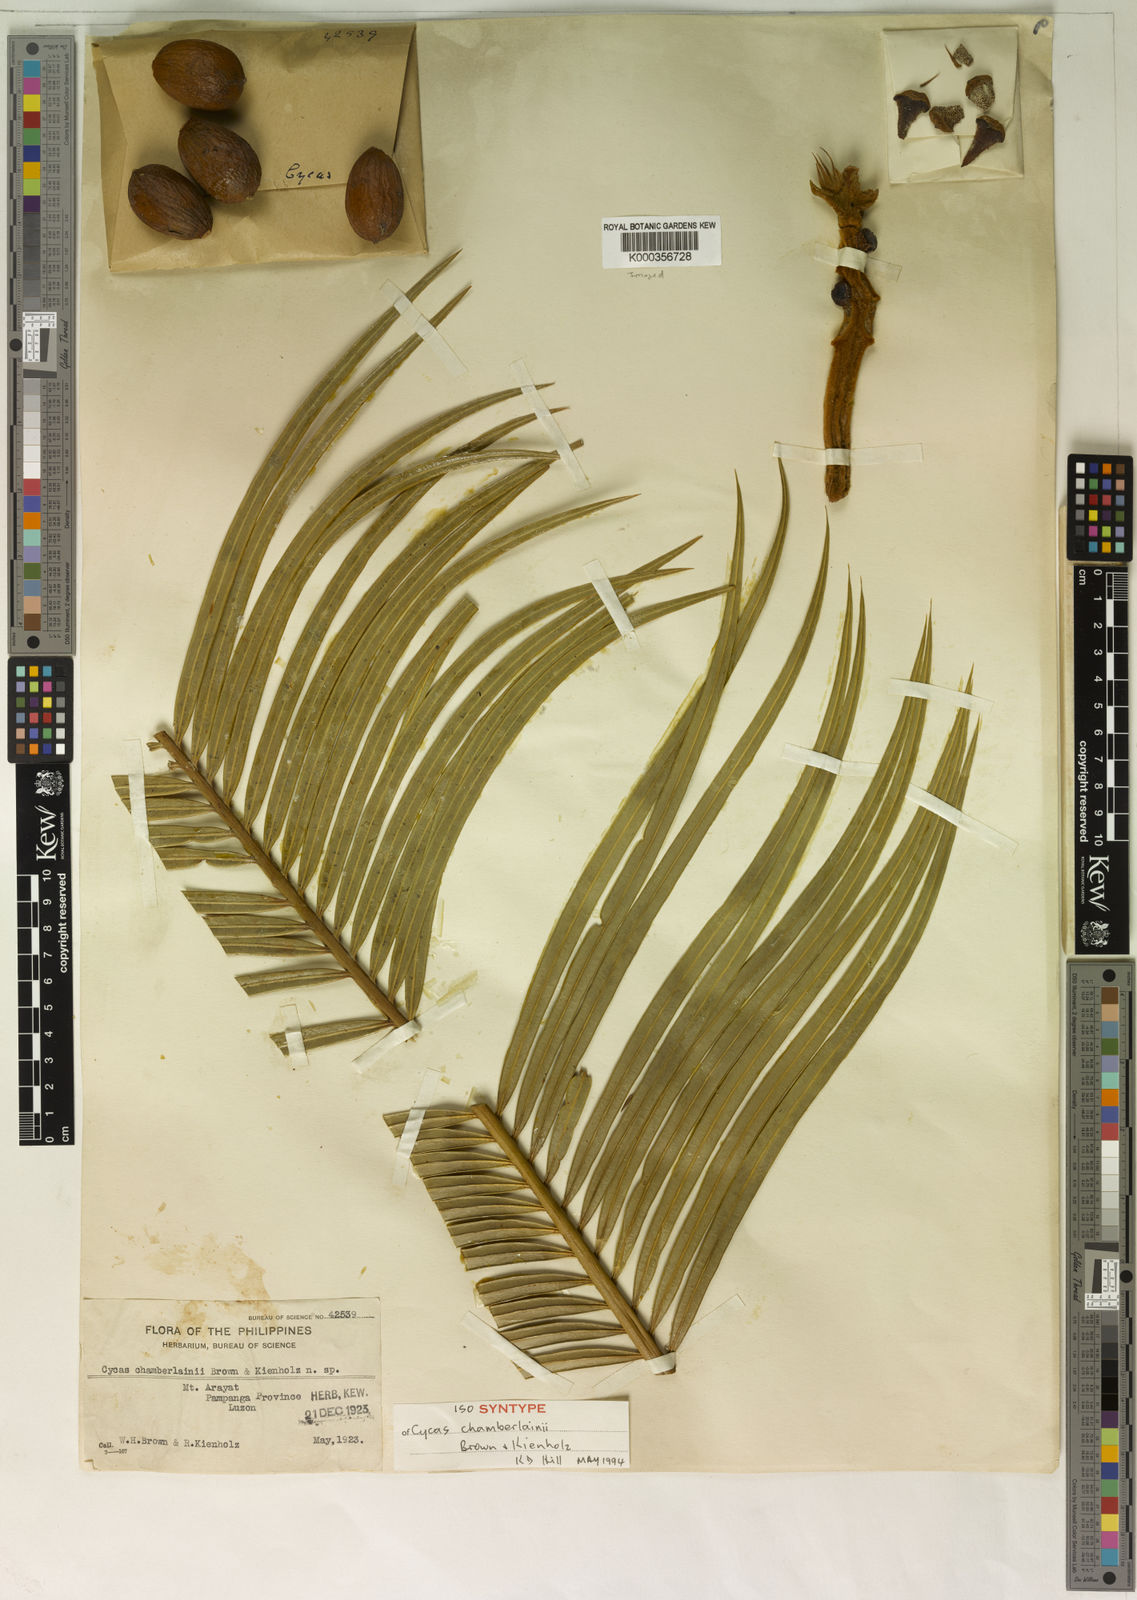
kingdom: Plantae
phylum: Tracheophyta
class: Cycadopsida
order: Cycadales
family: Cycadaceae
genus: Cycas
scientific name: Cycas riuminiana
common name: Arayat pitogo
